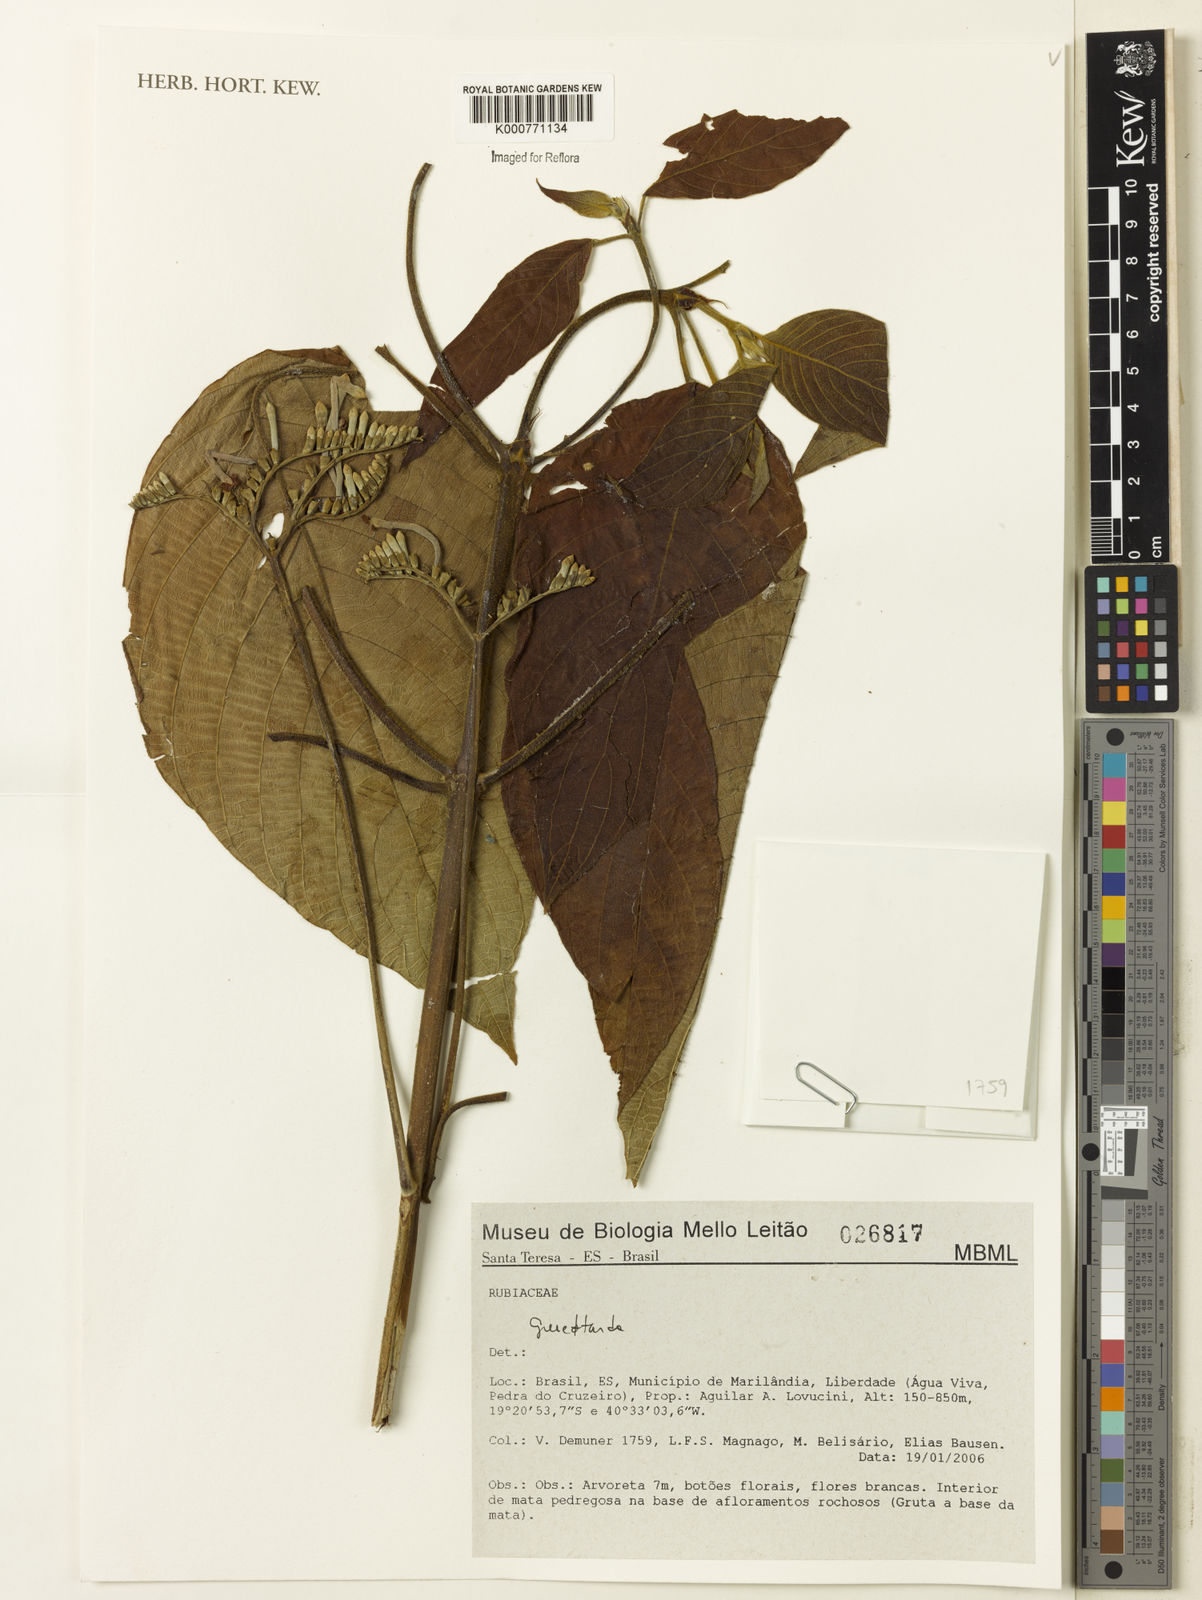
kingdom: Plantae
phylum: Tracheophyta
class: Magnoliopsida
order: Gentianales
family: Rubiaceae
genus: Guettarda
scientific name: Guettarda
